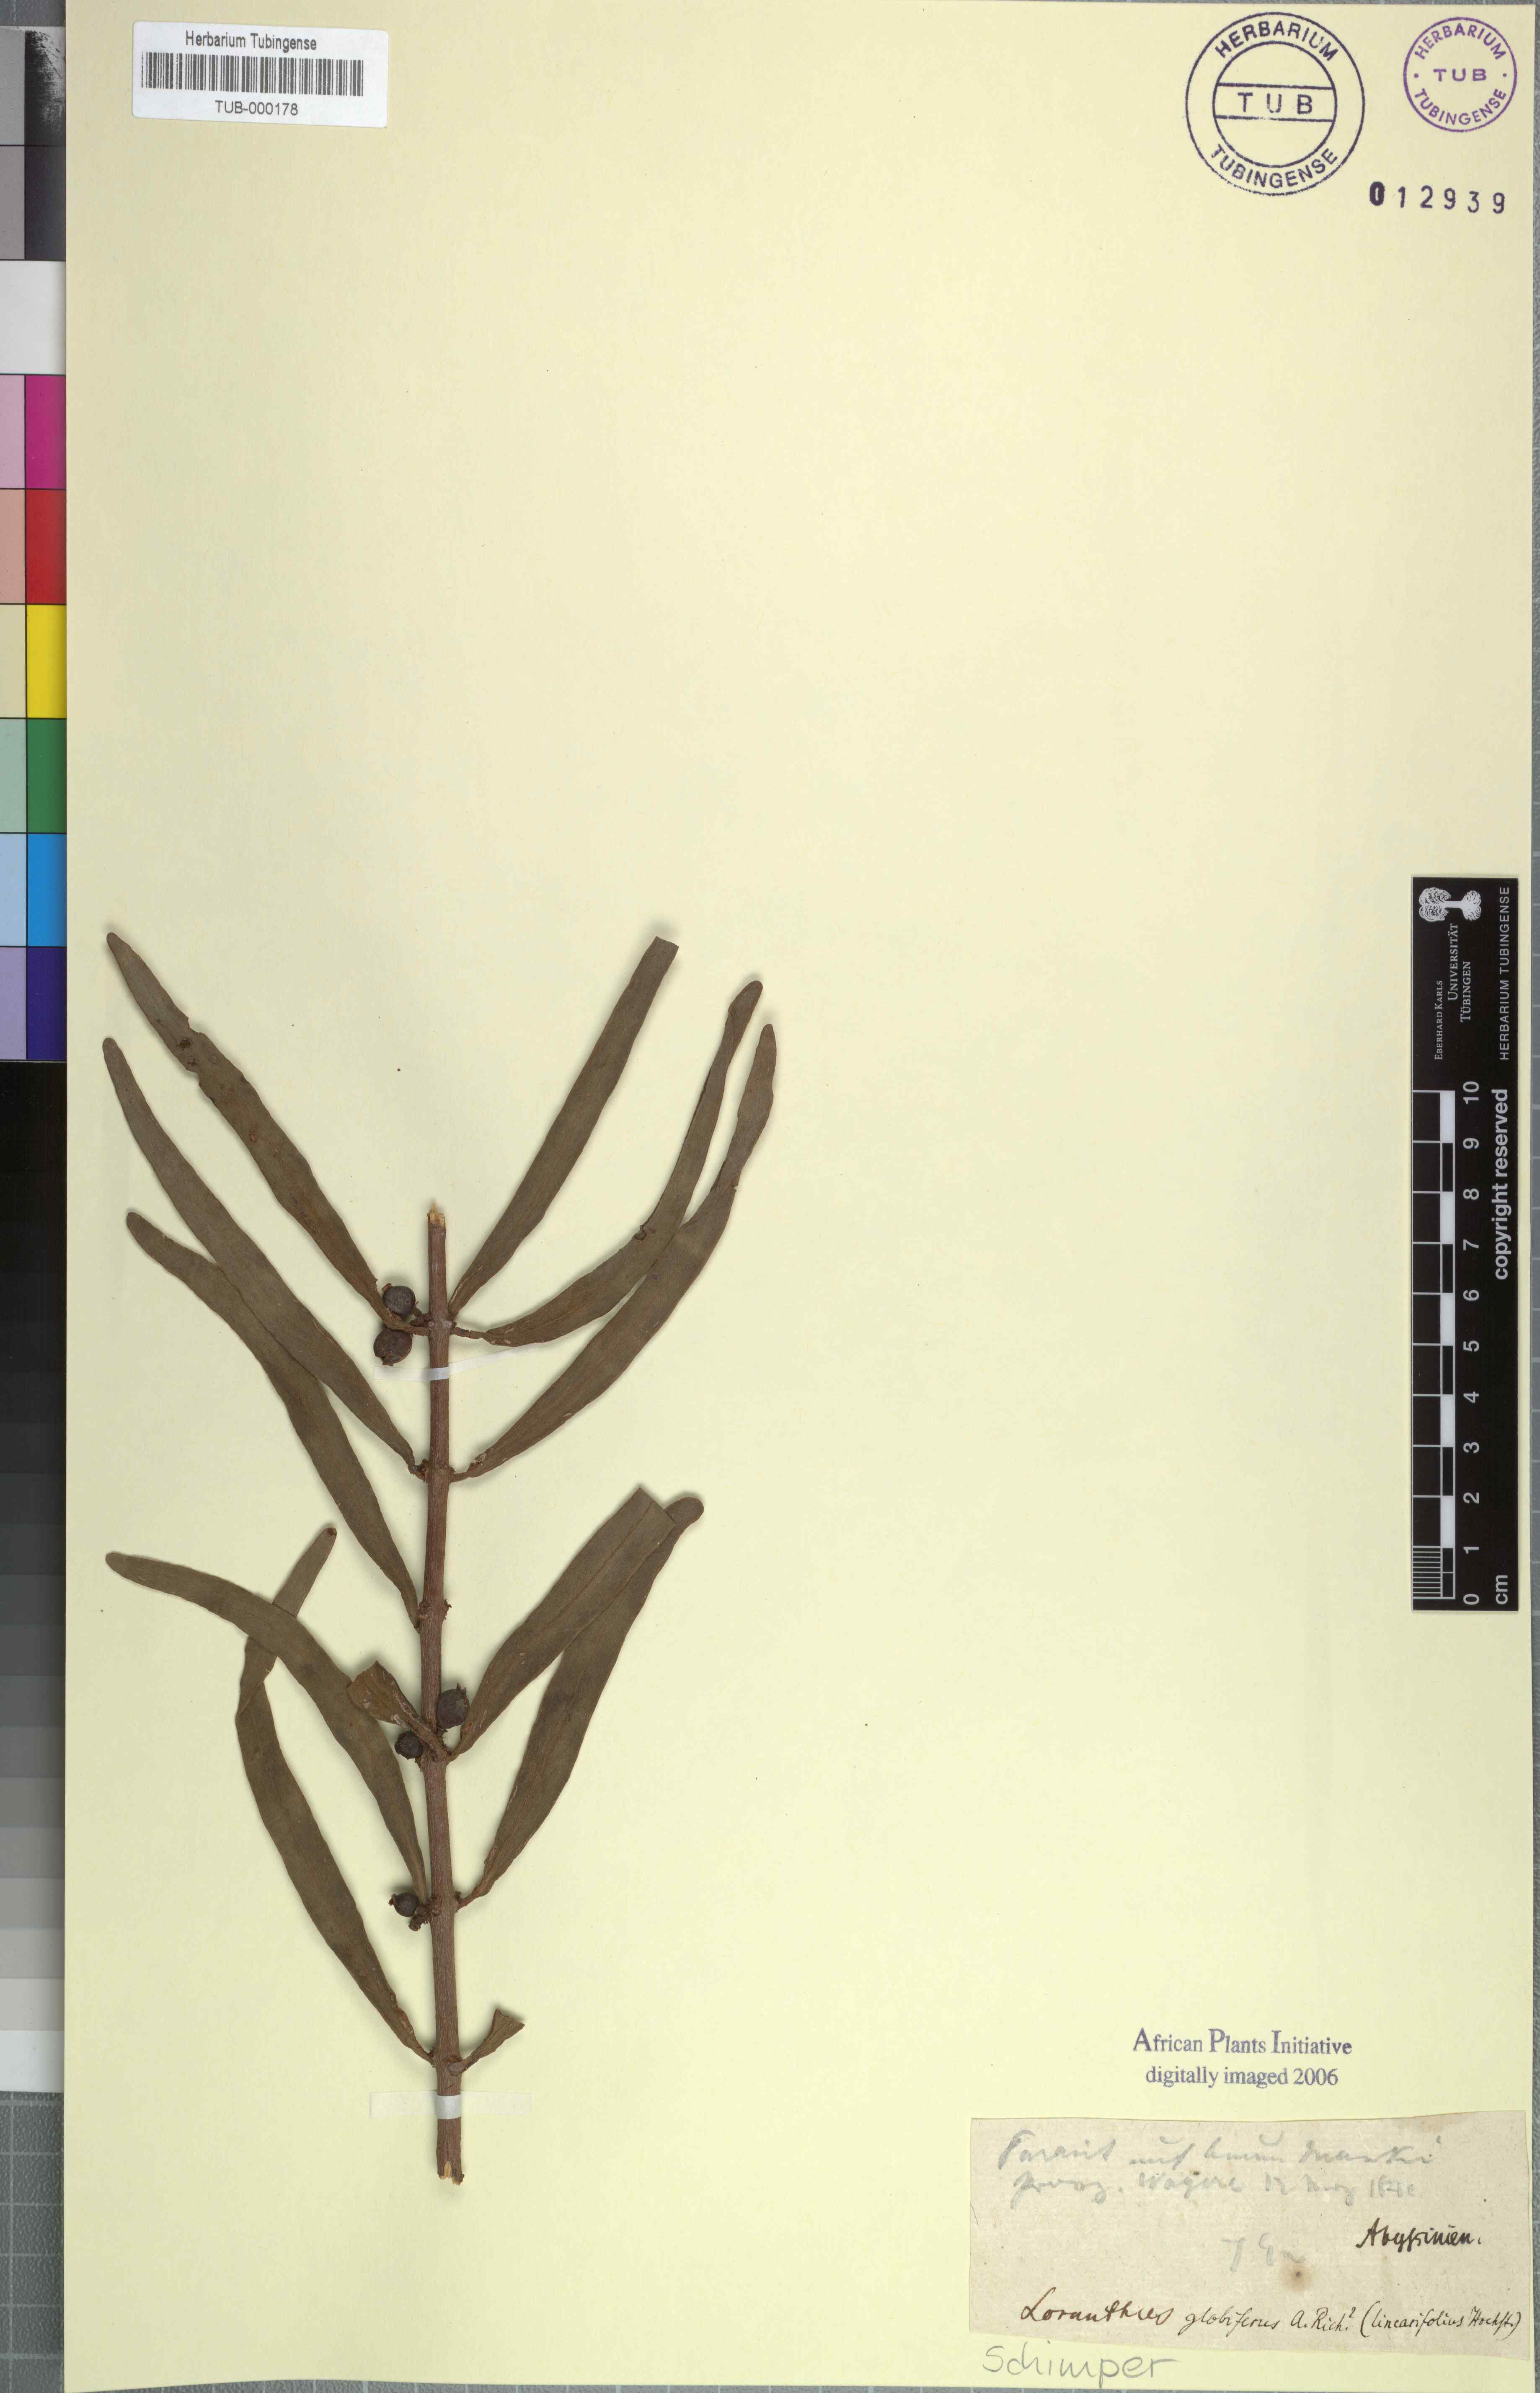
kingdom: Plantae
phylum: Tracheophyta
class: Magnoliopsida
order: Santalales
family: Loranthaceae
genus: Tapinanthus
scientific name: Tapinanthus globiferus
